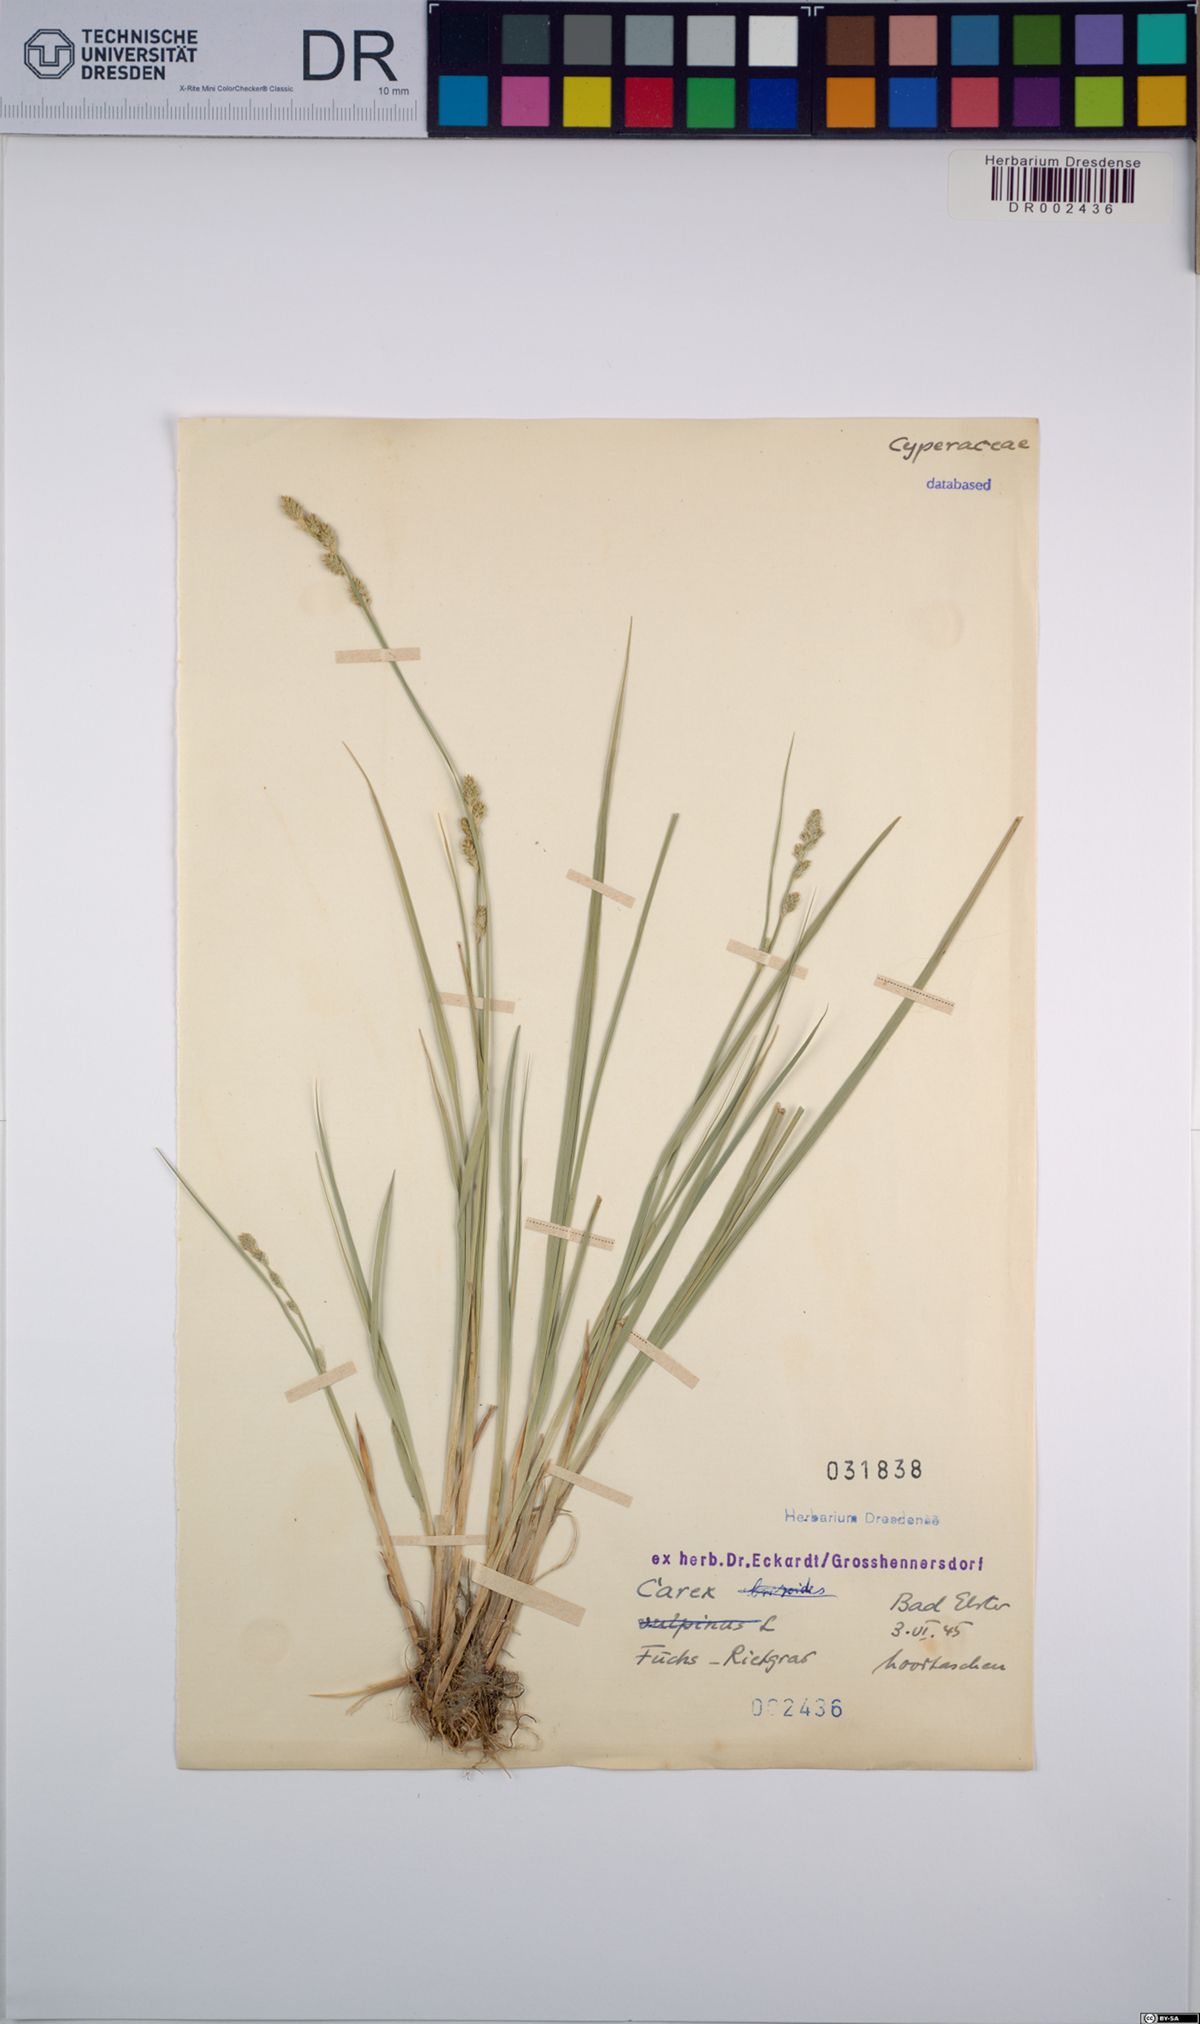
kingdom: Plantae
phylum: Tracheophyta
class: Liliopsida
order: Poales
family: Cyperaceae
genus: Carex
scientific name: Carex
